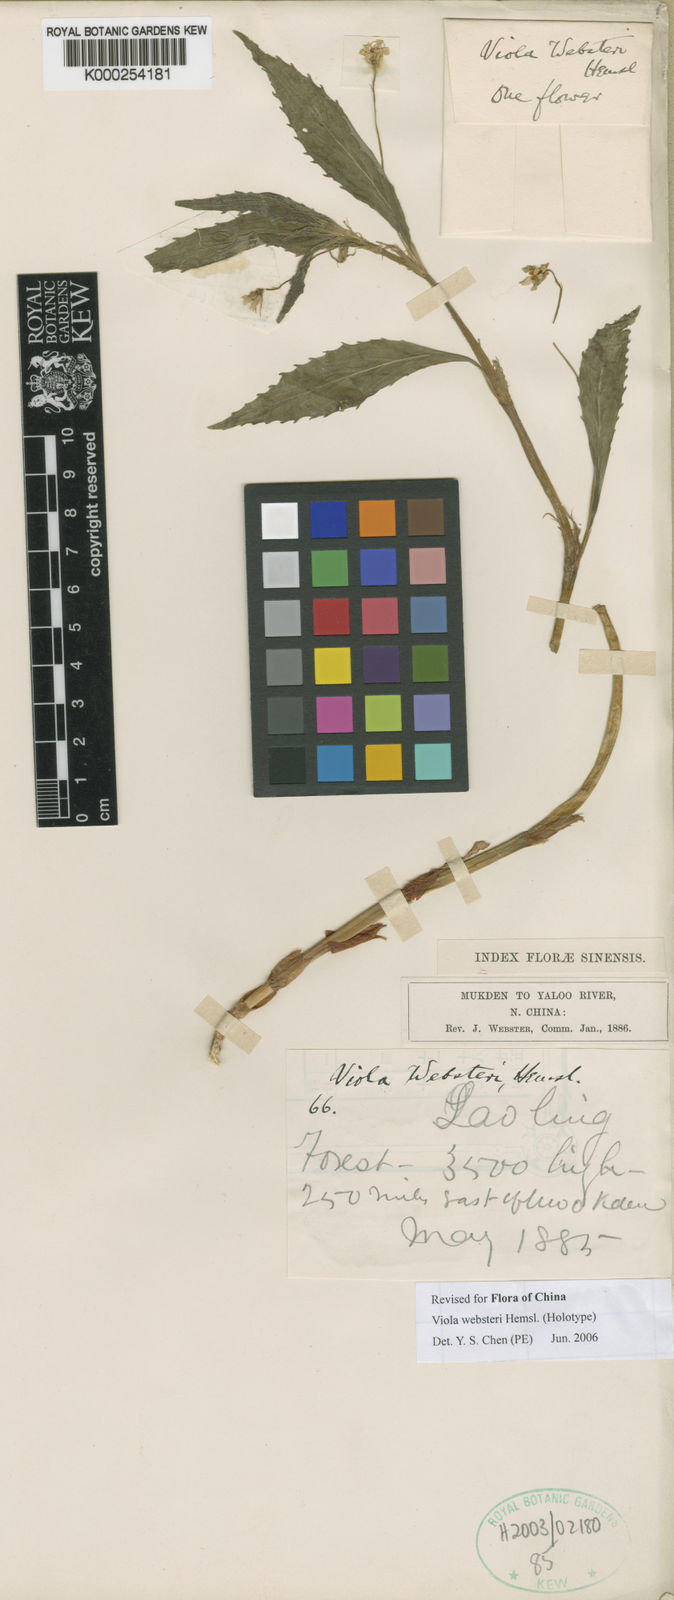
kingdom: Plantae
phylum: Tracheophyta
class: Magnoliopsida
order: Malpighiales
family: Violaceae
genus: Viola
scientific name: Viola websteri
